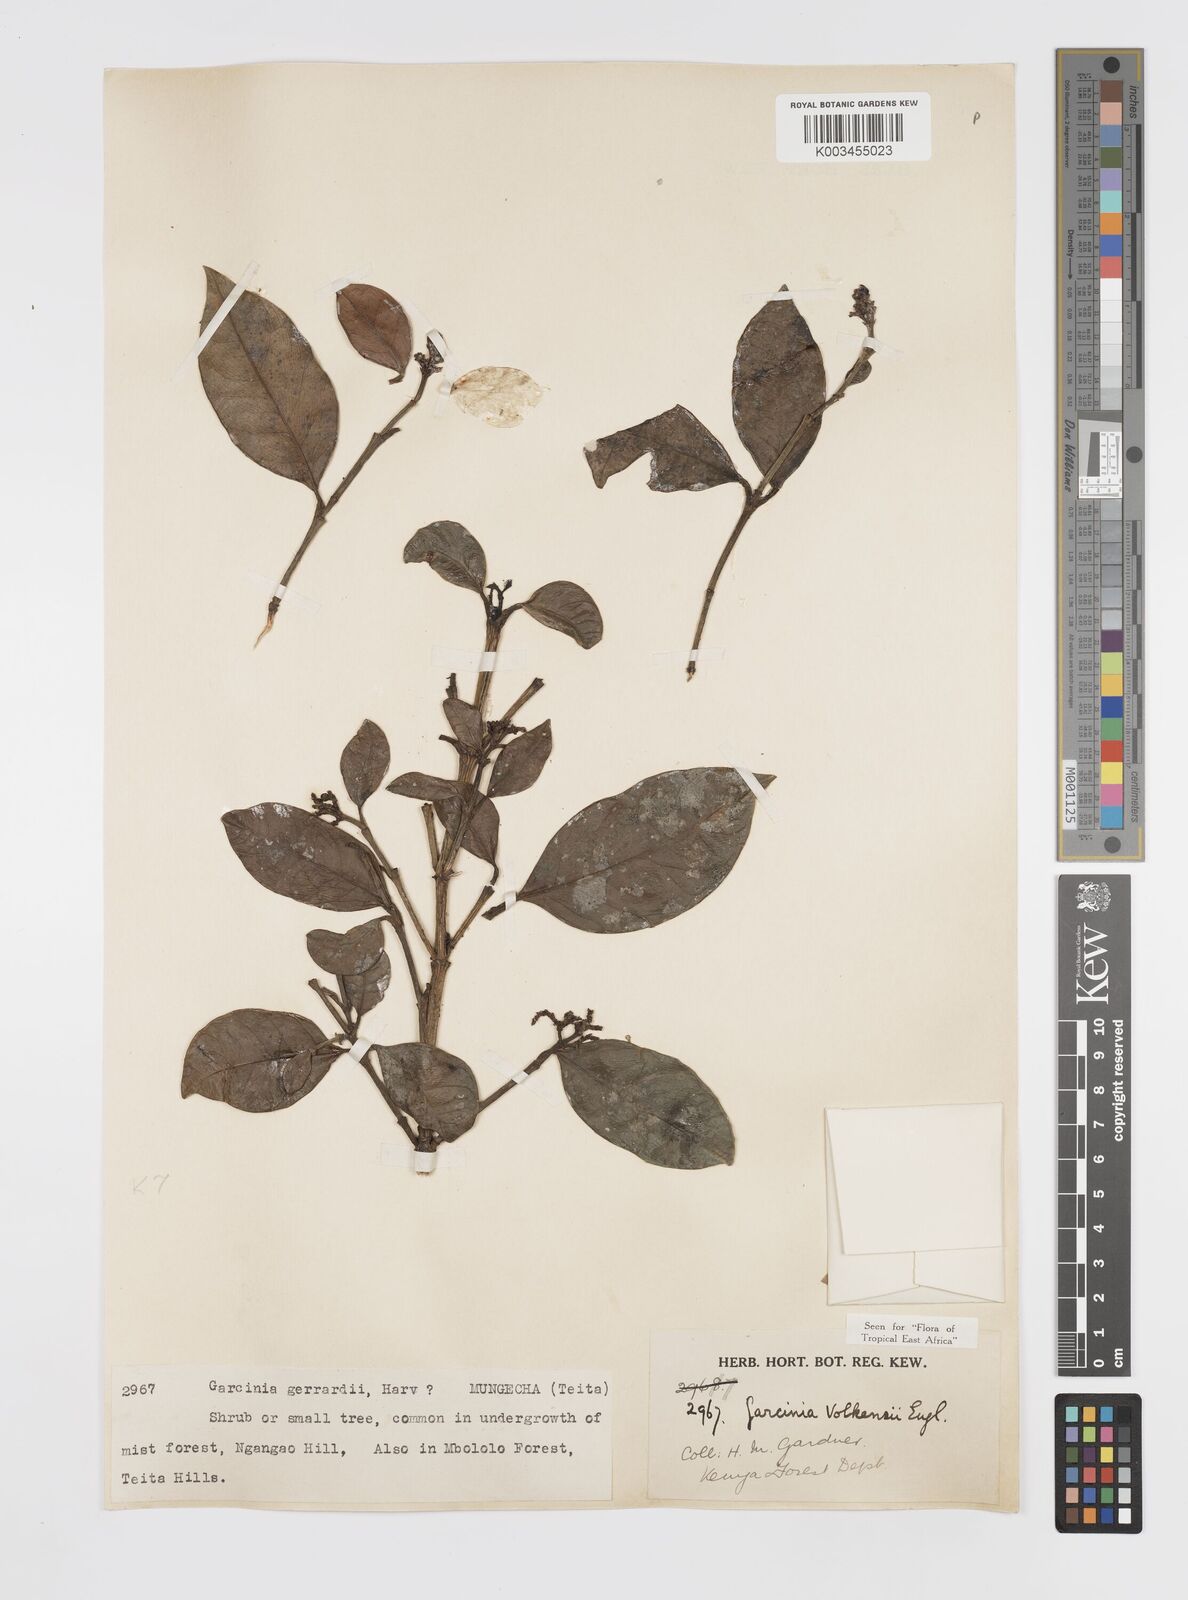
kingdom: Plantae
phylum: Tracheophyta
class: Magnoliopsida
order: Malpighiales
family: Clusiaceae
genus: Garcinia
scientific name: Garcinia volkensii
